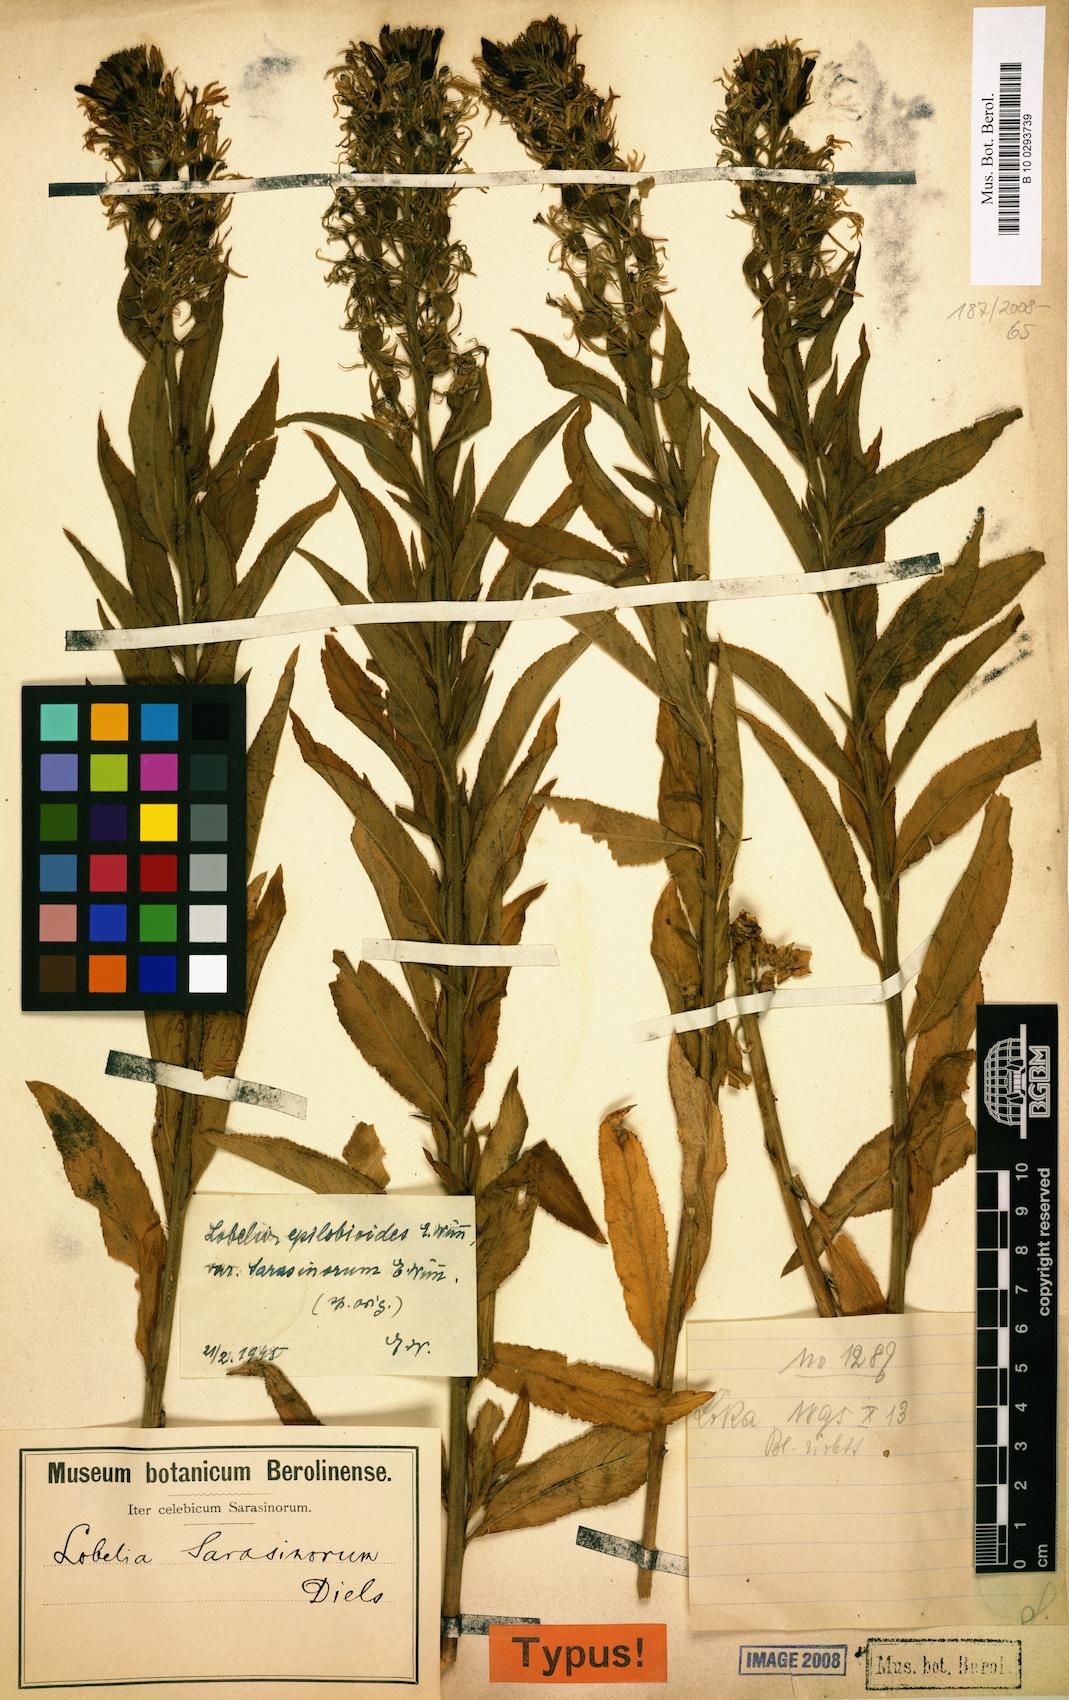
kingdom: Plantae
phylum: Tracheophyta
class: Magnoliopsida
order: Asterales
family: Campanulaceae
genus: Lobelia
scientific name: Lobelia eryliae
